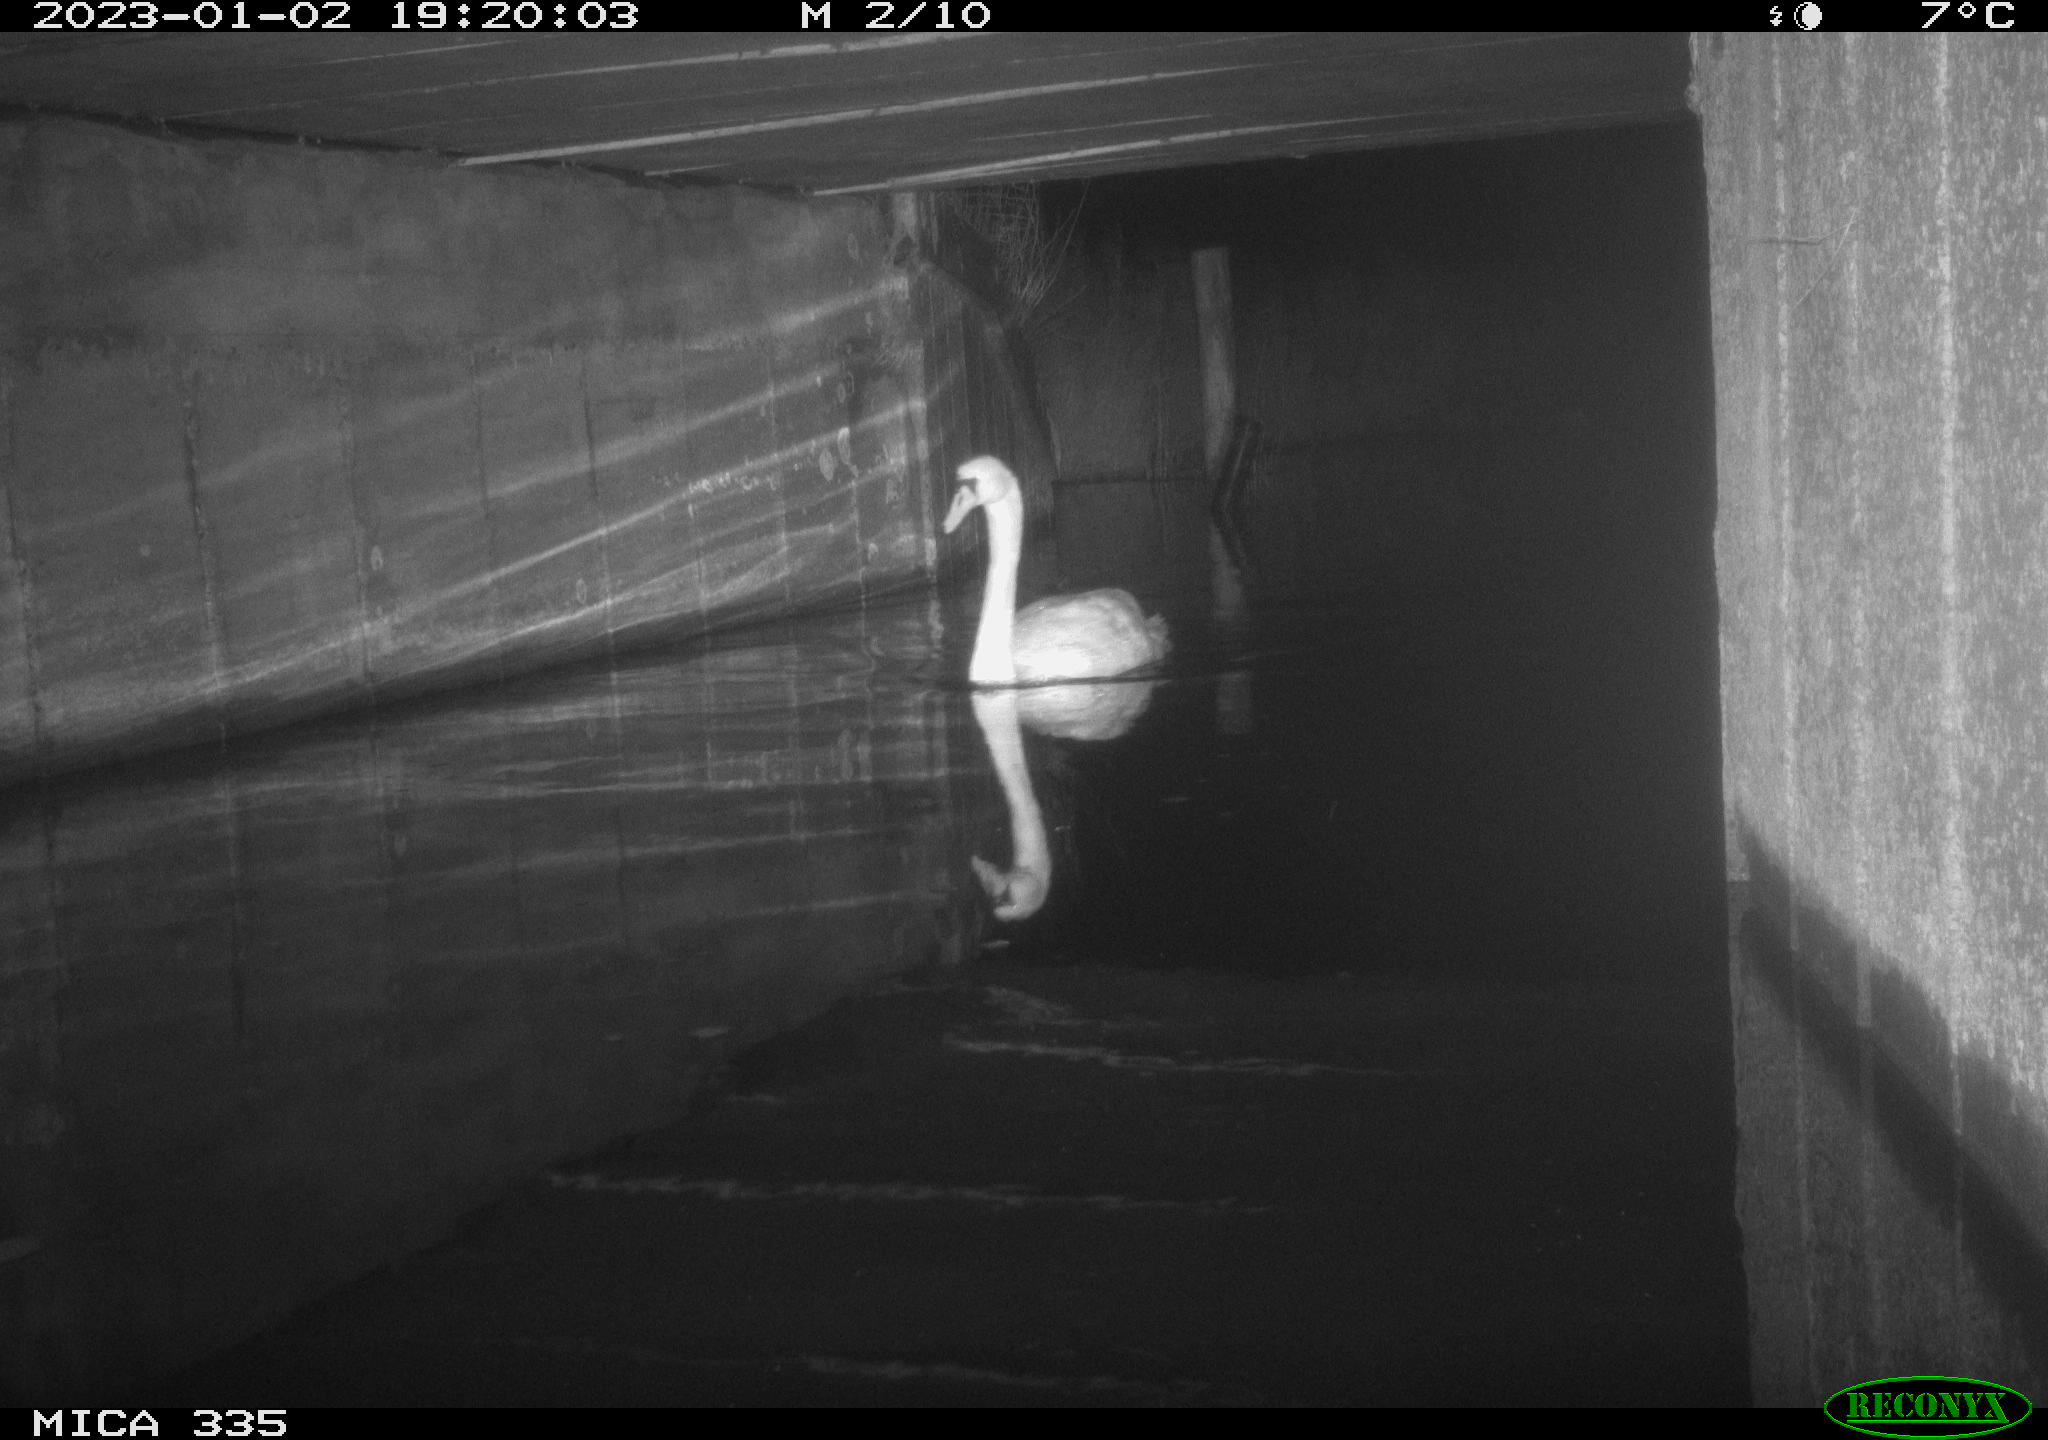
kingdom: Animalia
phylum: Chordata
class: Aves
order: Anseriformes
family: Anatidae
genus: Cygnus
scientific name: Cygnus olor
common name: Mute swan
